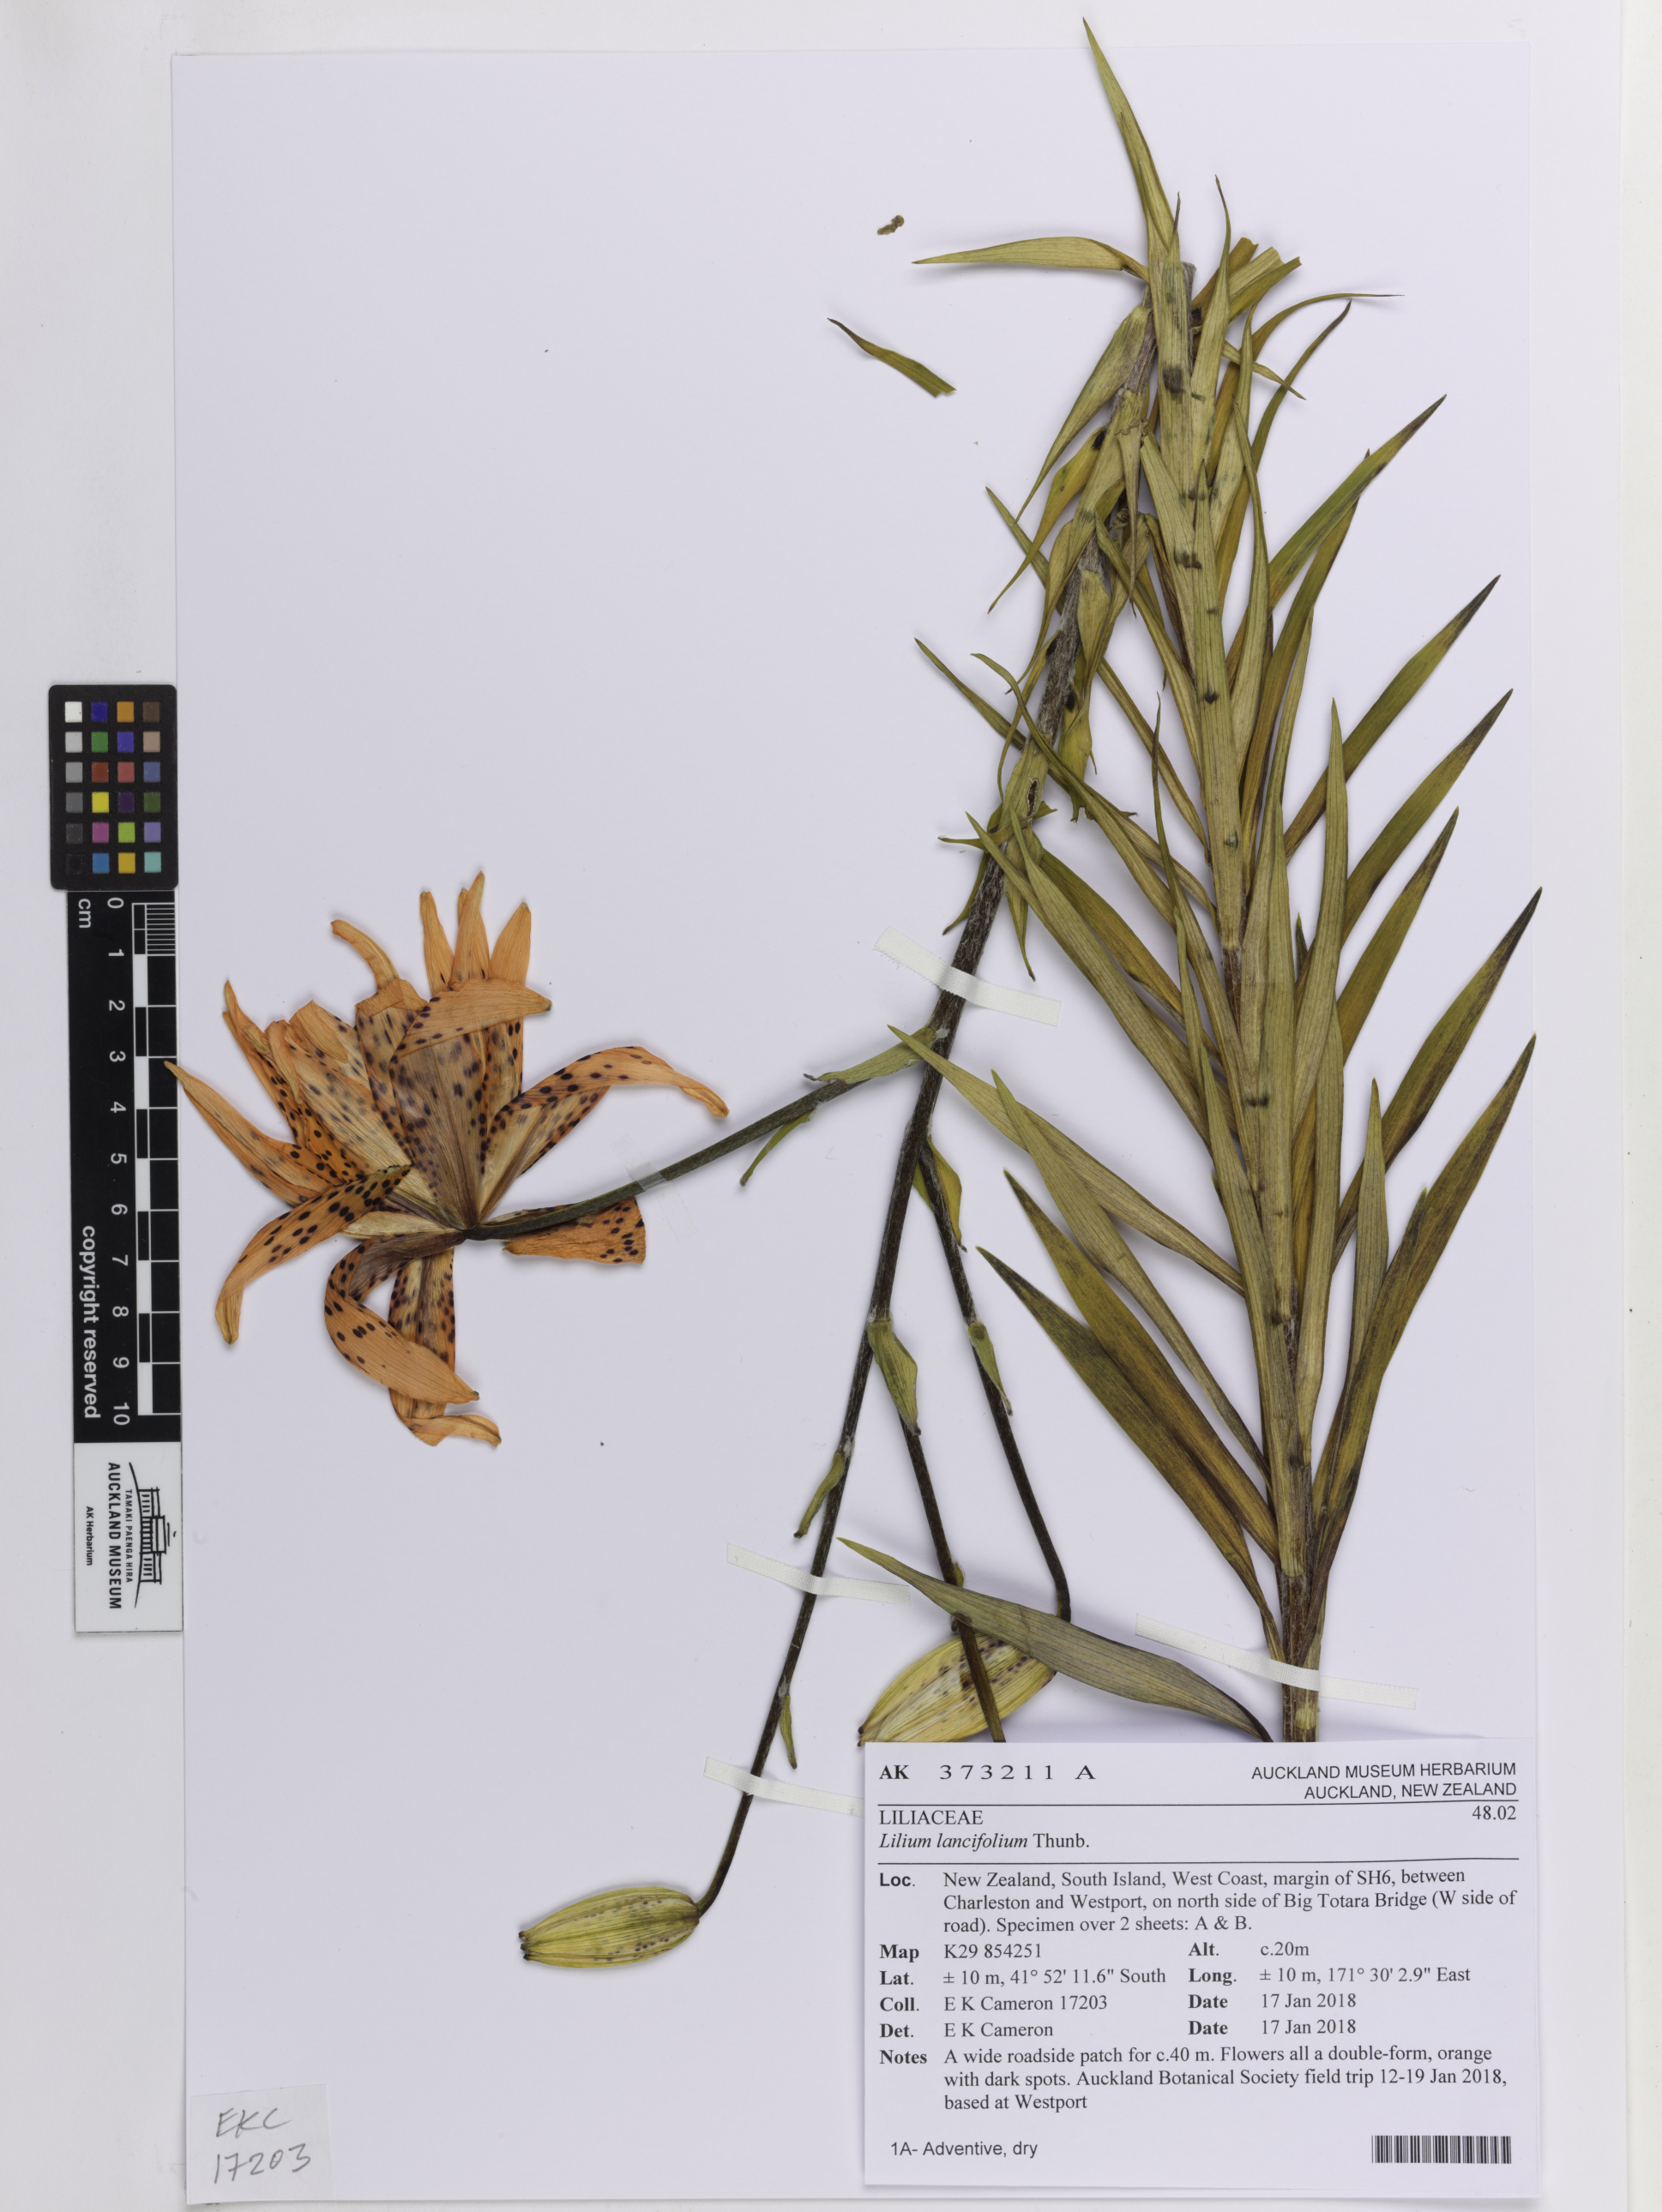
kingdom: Plantae
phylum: Tracheophyta
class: Liliopsida
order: Liliales
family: Liliaceae
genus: Lilium
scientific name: Lilium lancifolium
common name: Tiger lily
